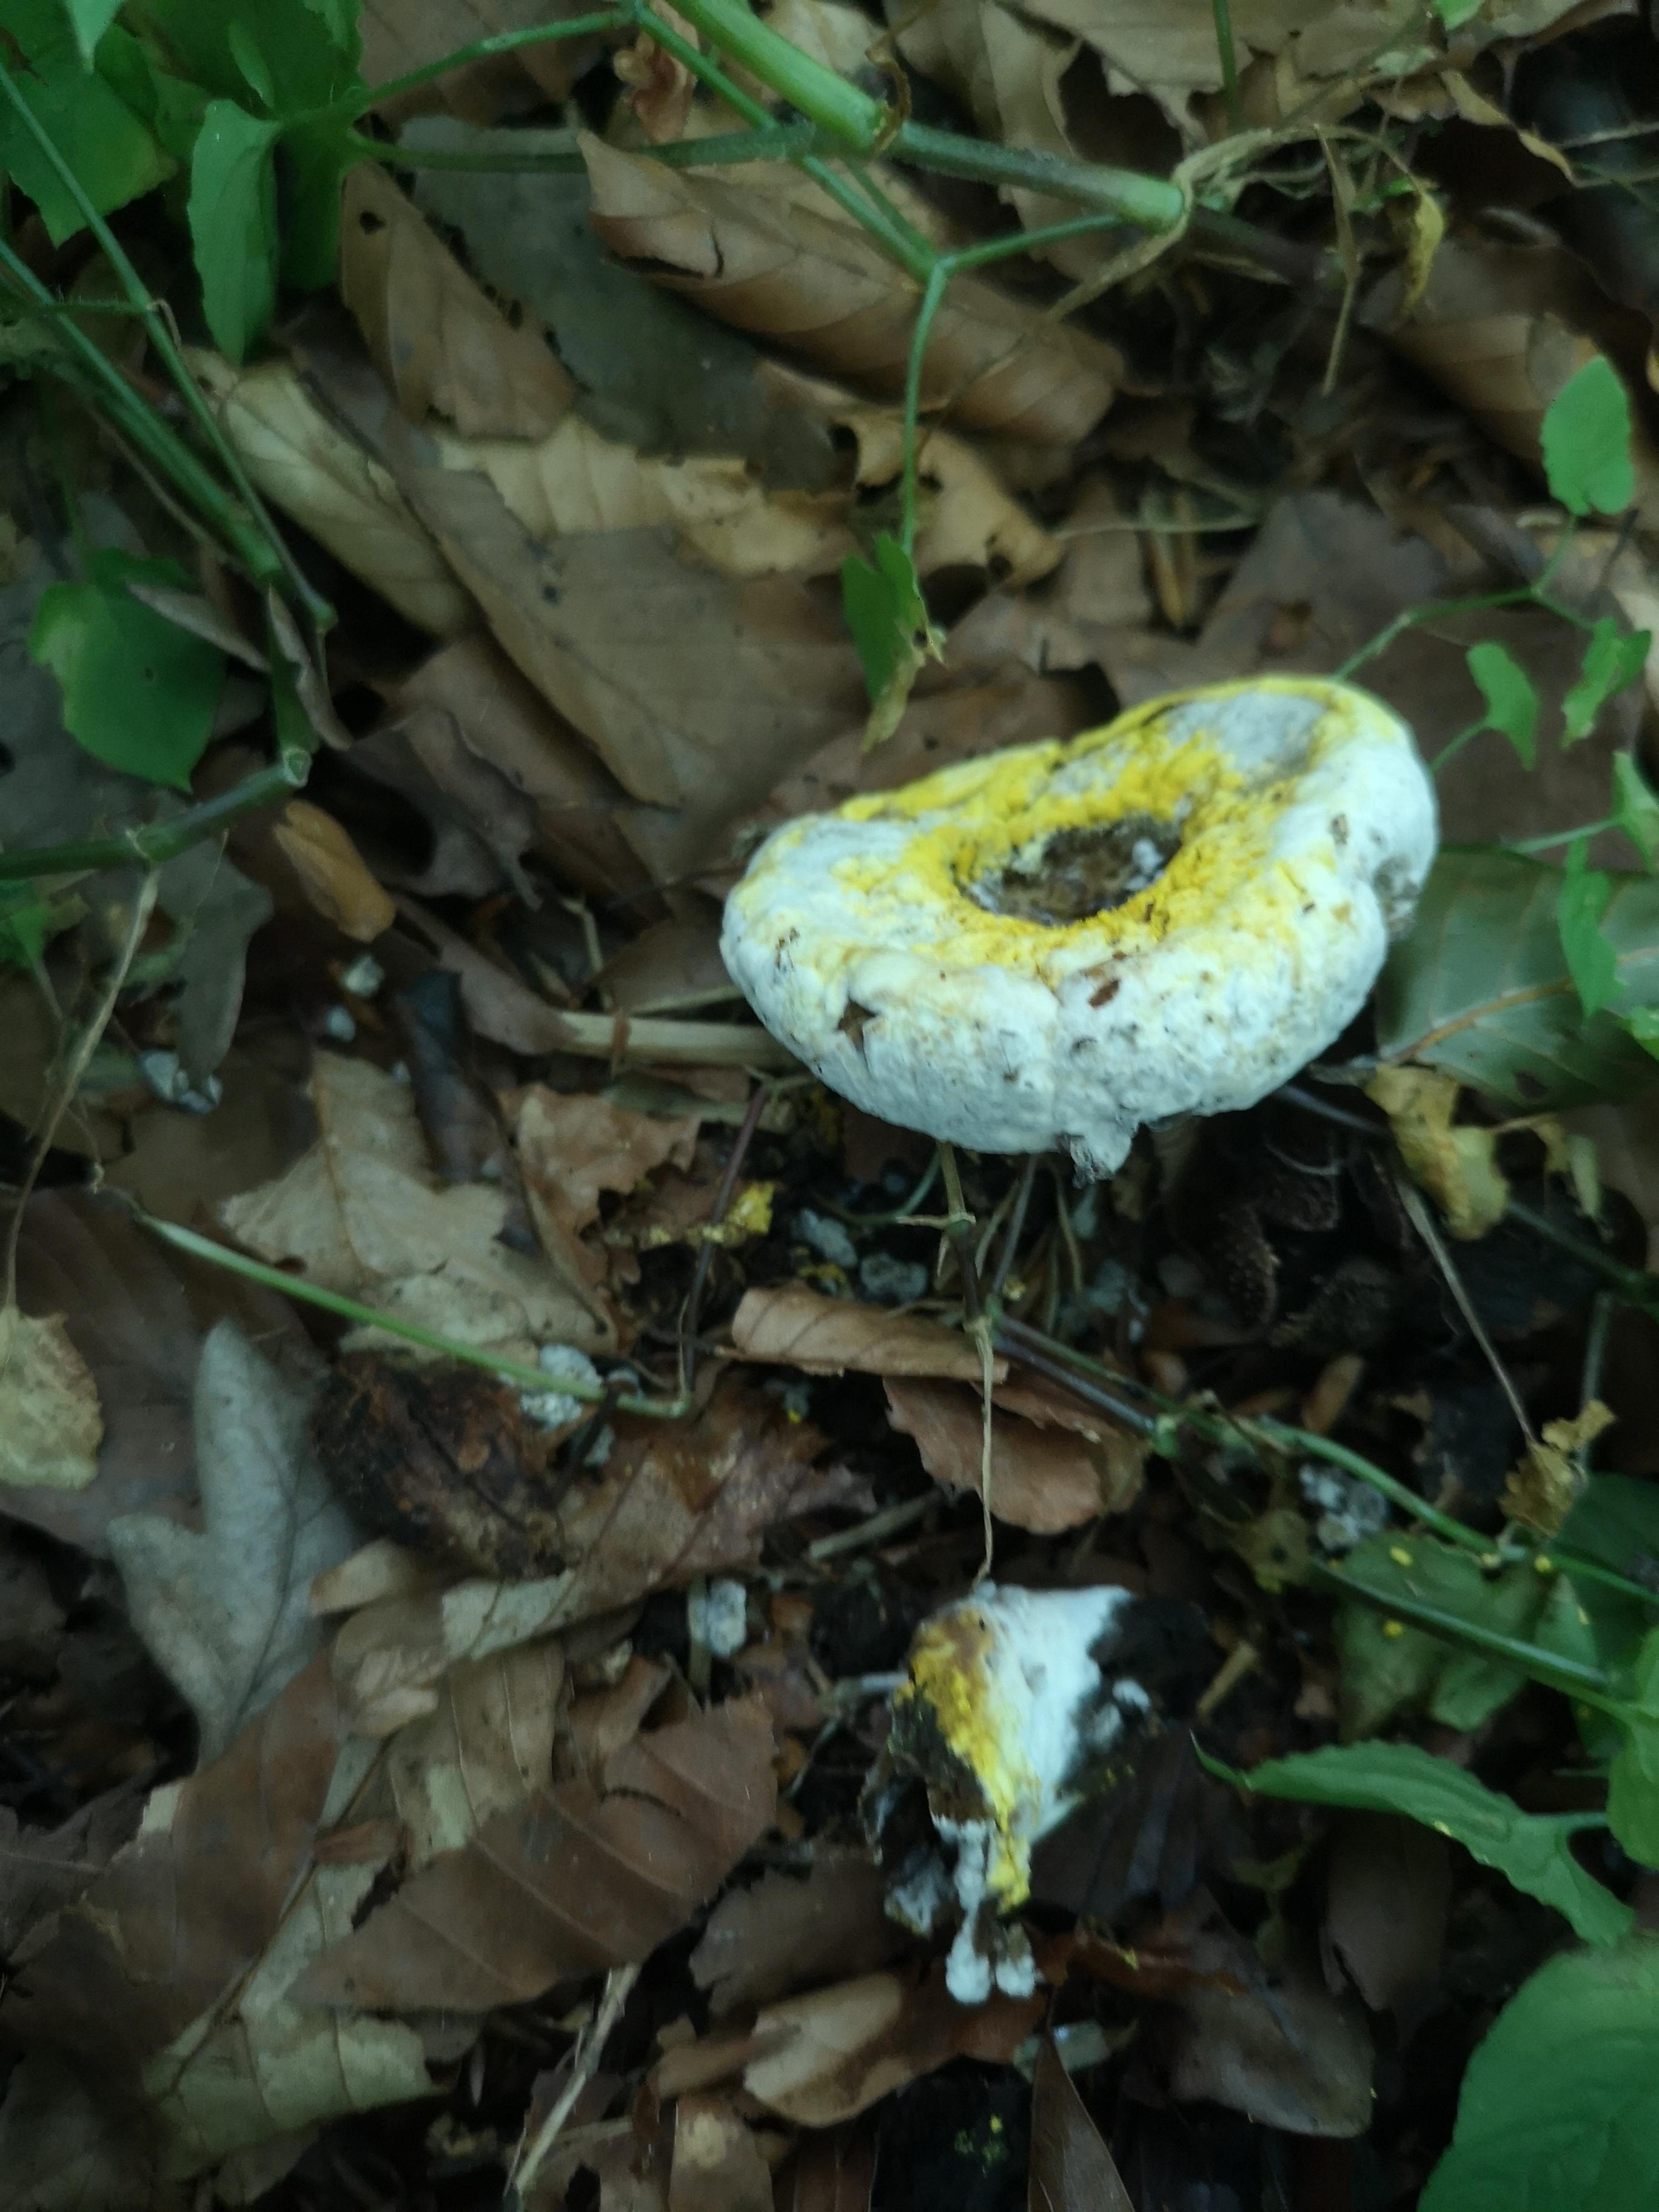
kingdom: Fungi
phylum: Ascomycota
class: Sordariomycetes
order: Hypocreales
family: Hypocreaceae
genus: Hypomyces
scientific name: Hypomyces
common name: snylteskorpe
